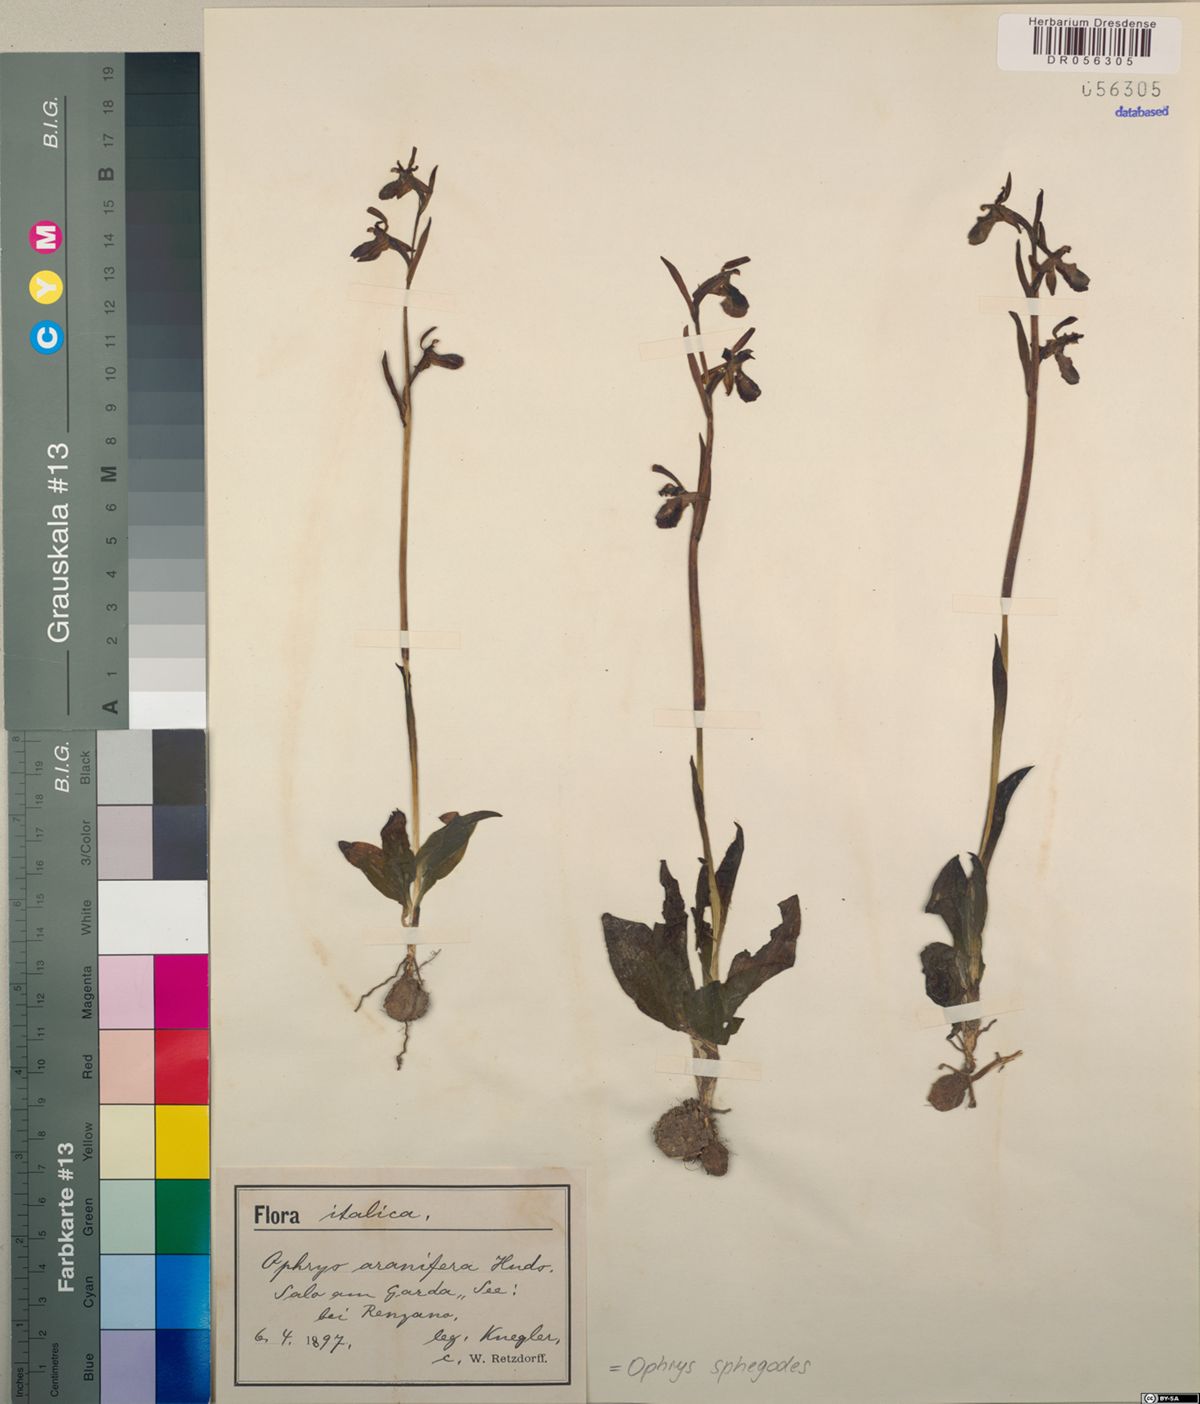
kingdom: Plantae
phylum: Tracheophyta
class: Liliopsida
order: Asparagales
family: Orchidaceae
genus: Ophrys
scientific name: Ophrys sphegodes
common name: Early spider-orchid
